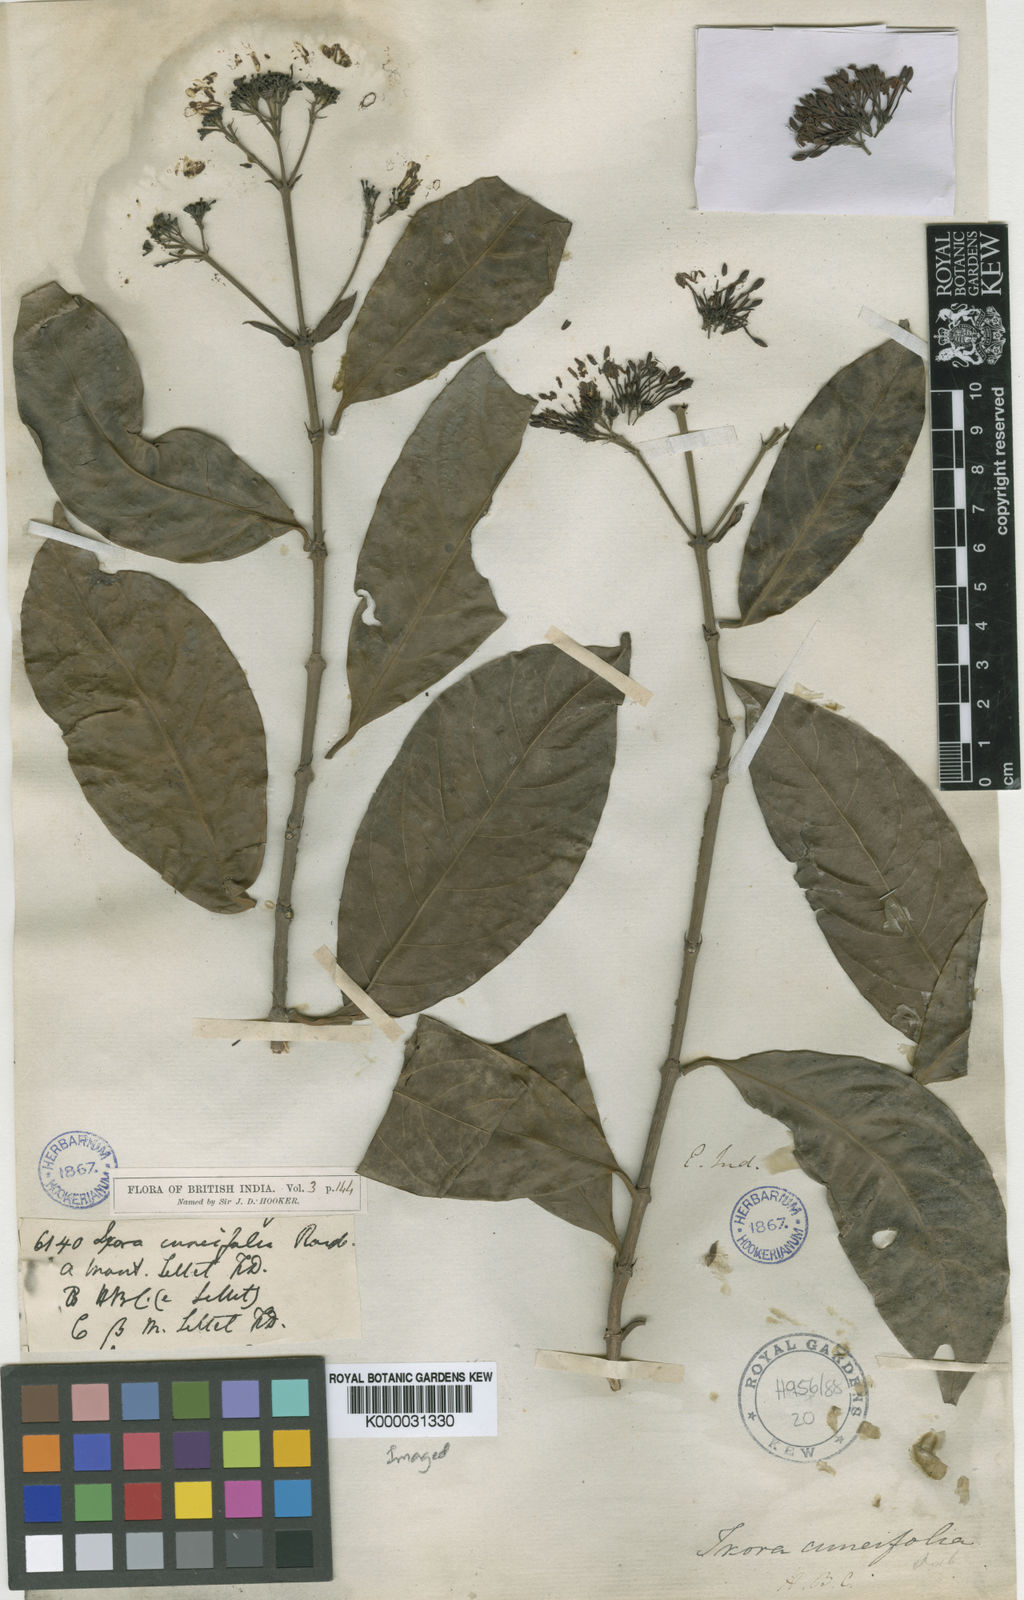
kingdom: Plantae
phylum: Tracheophyta
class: Magnoliopsida
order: Gentianales
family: Rubiaceae
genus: Ixora
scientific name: Ixora cuneifolia
